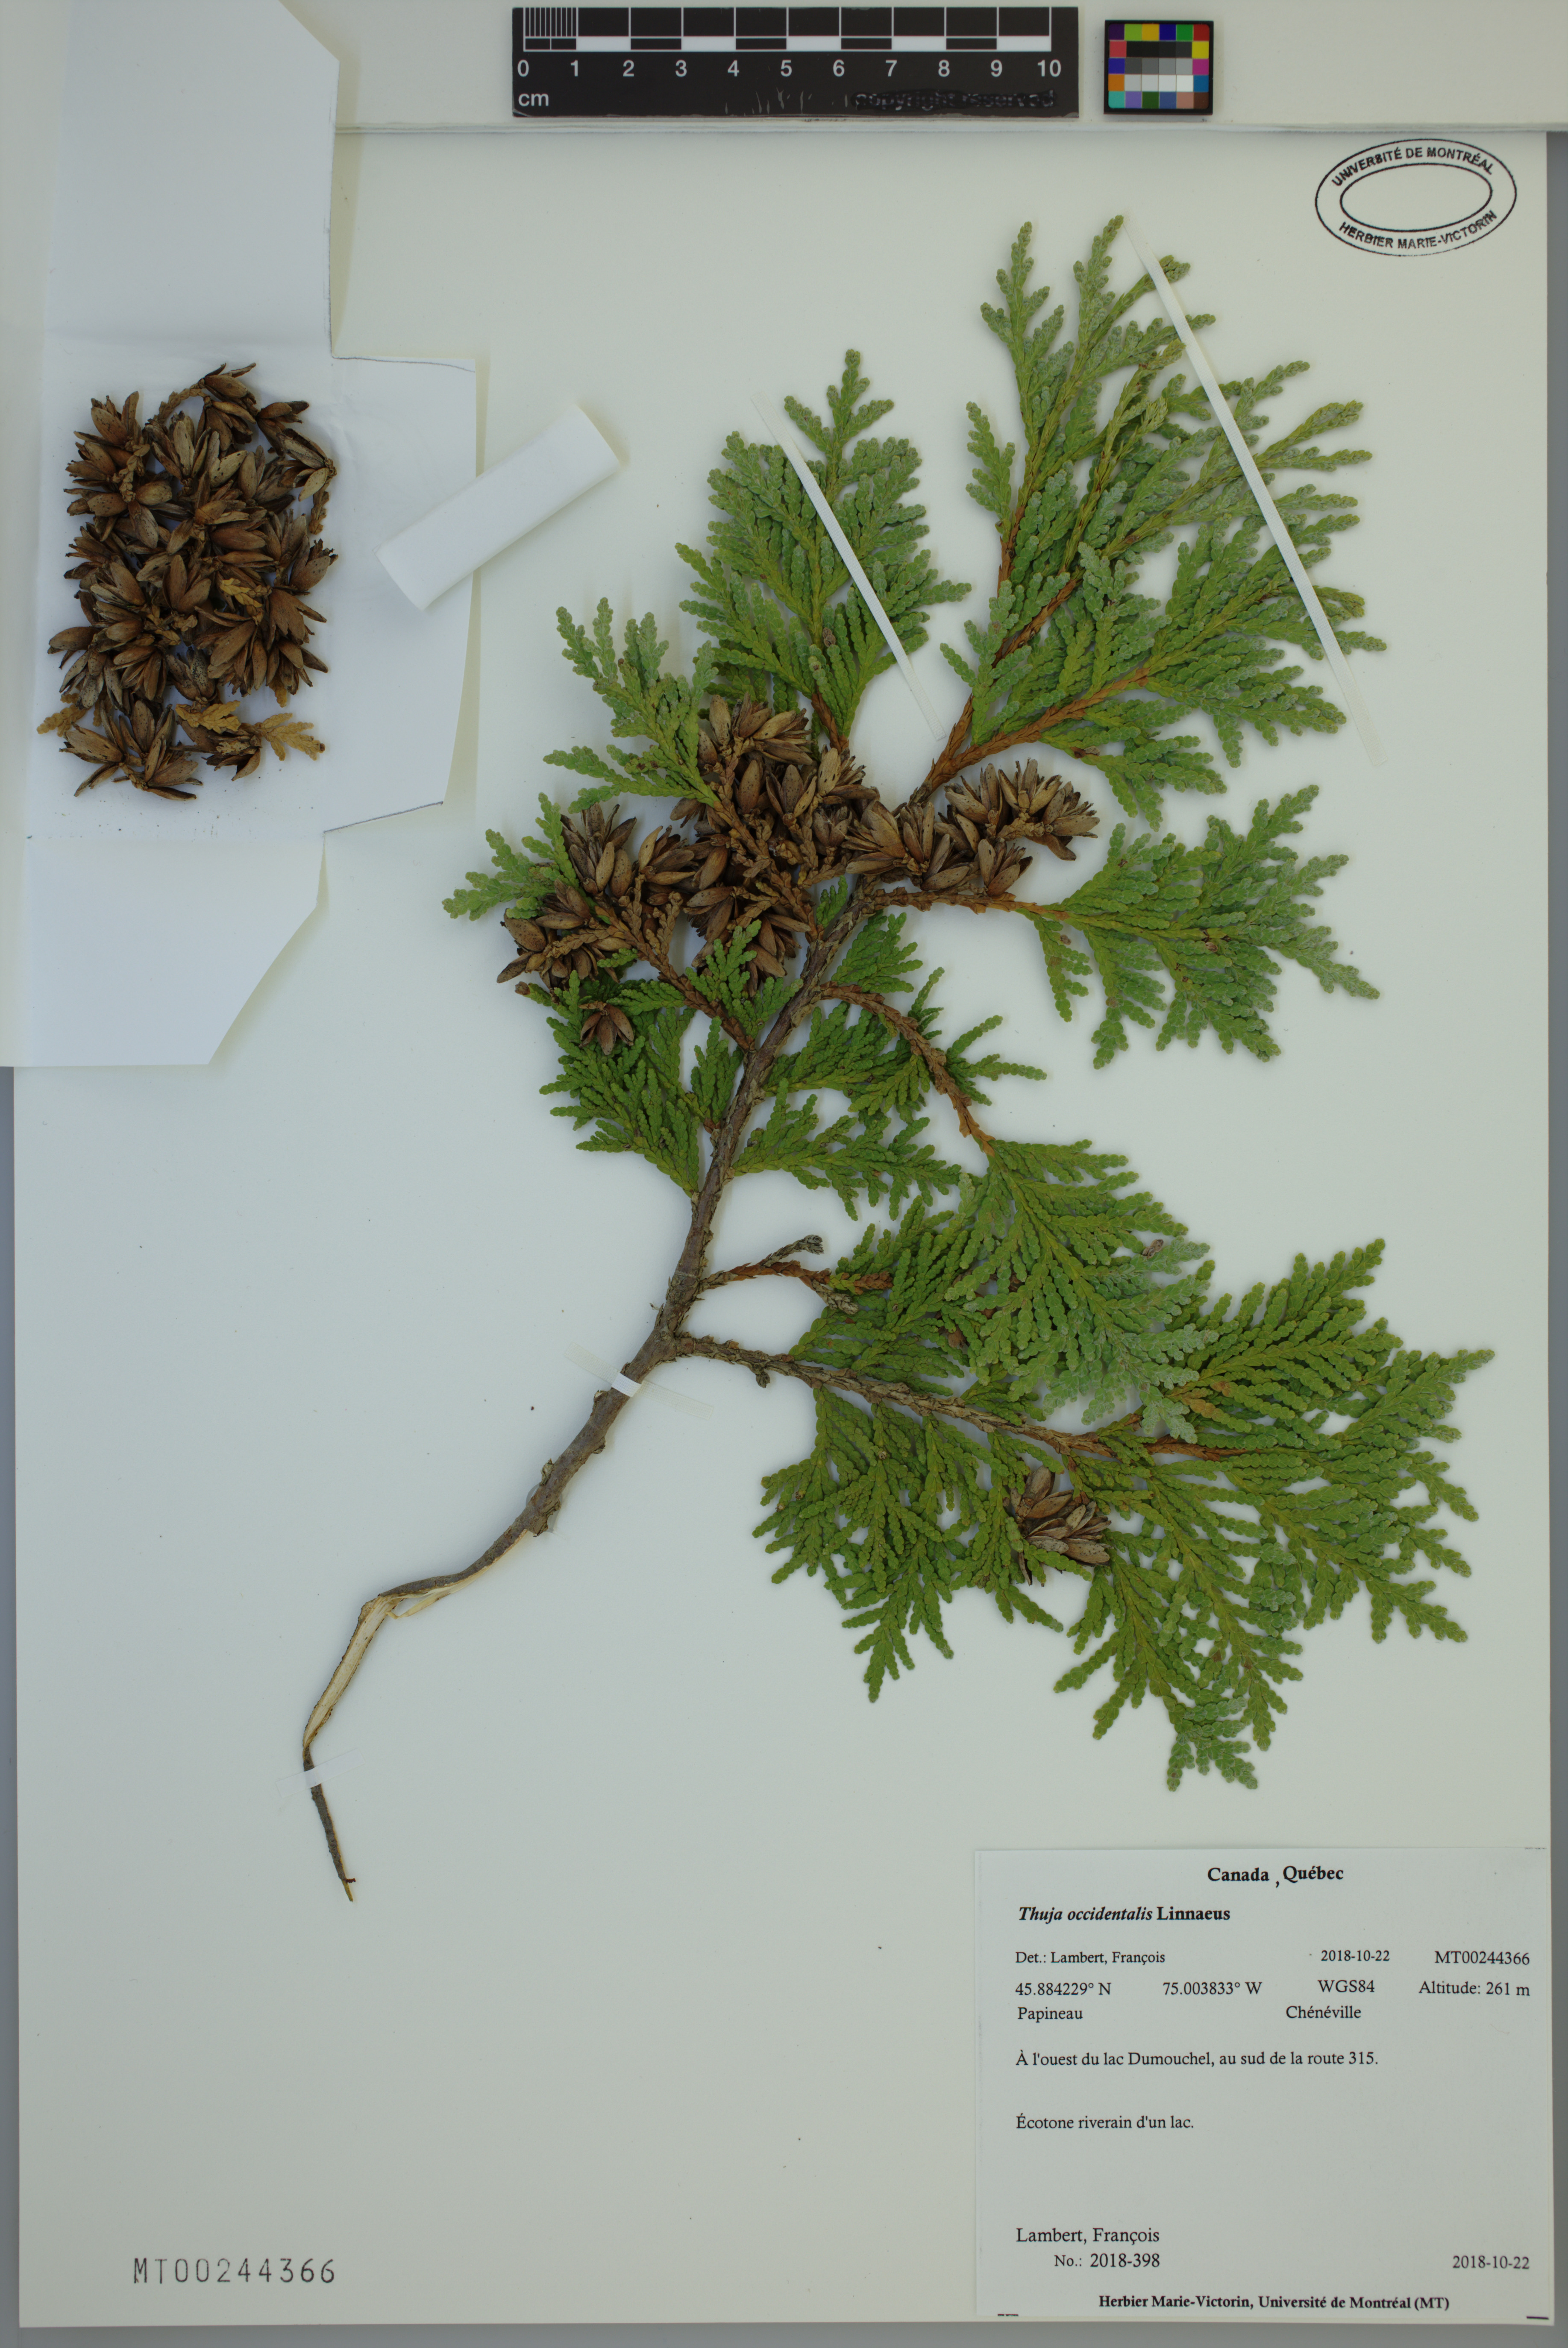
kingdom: Plantae
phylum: Tracheophyta
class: Pinopsida
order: Pinales
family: Cupressaceae
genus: Thuja
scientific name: Thuja occidentalis
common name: Northern white-cedar
